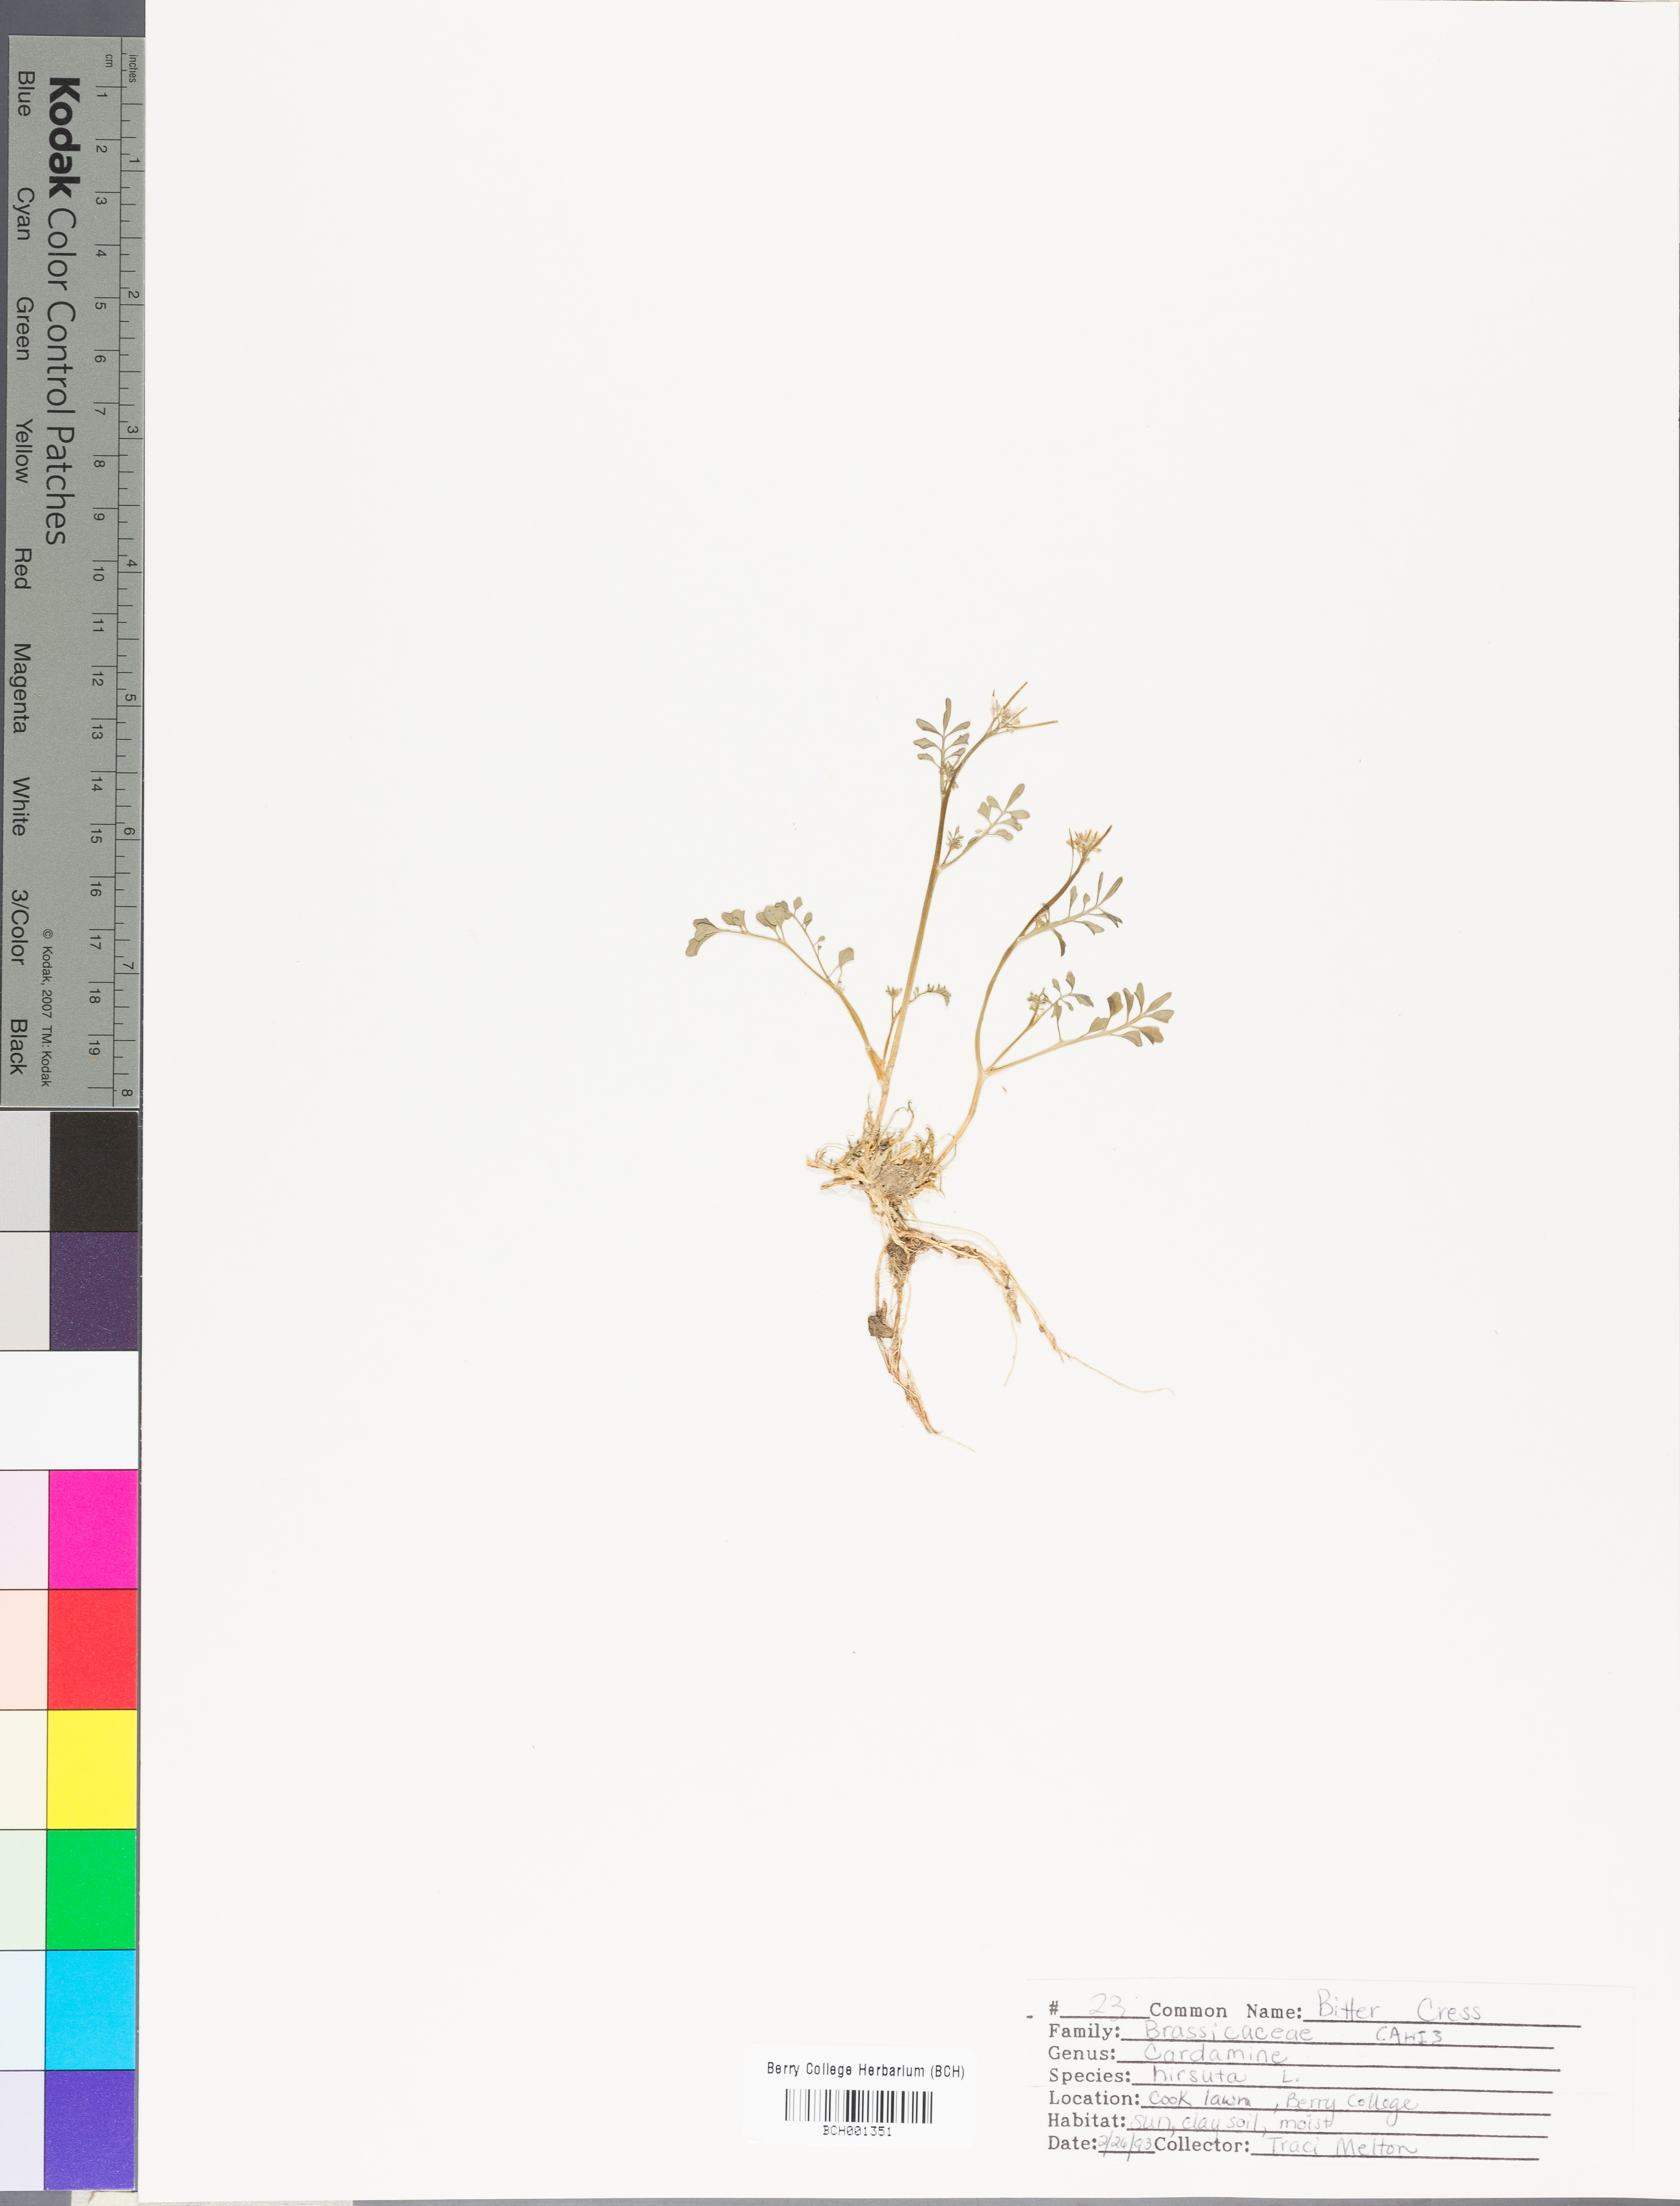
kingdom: Plantae
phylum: Tracheophyta
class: Magnoliopsida
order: Brassicales
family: Brassicaceae
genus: Cardamine
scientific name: Cardamine hirsuta
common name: Hairy bittercress
